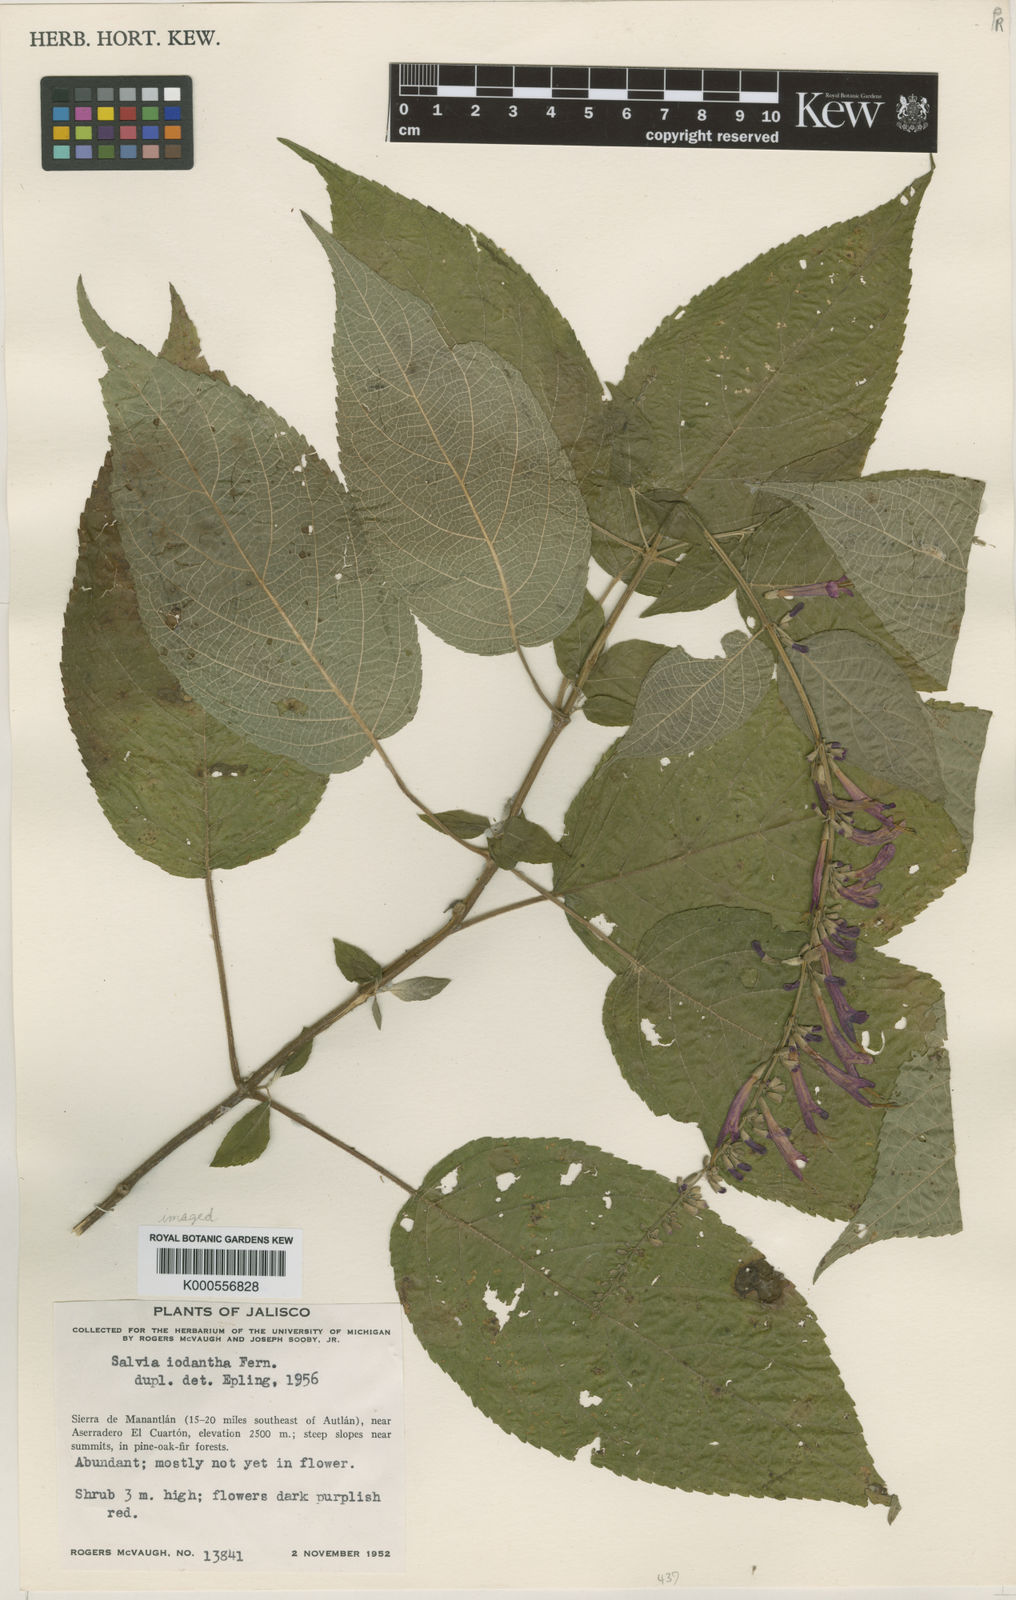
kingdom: Plantae
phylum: Tracheophyta
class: Magnoliopsida
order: Lamiales
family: Lamiaceae
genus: Salvia
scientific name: Salvia iodantha
